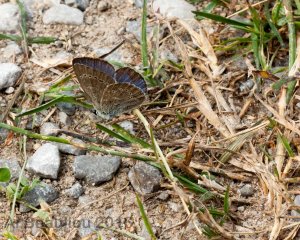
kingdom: Animalia
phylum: Arthropoda
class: Insecta
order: Lepidoptera
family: Lycaenidae
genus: Glaucopsyche
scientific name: Glaucopsyche lygdamus
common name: Silvery Blue
